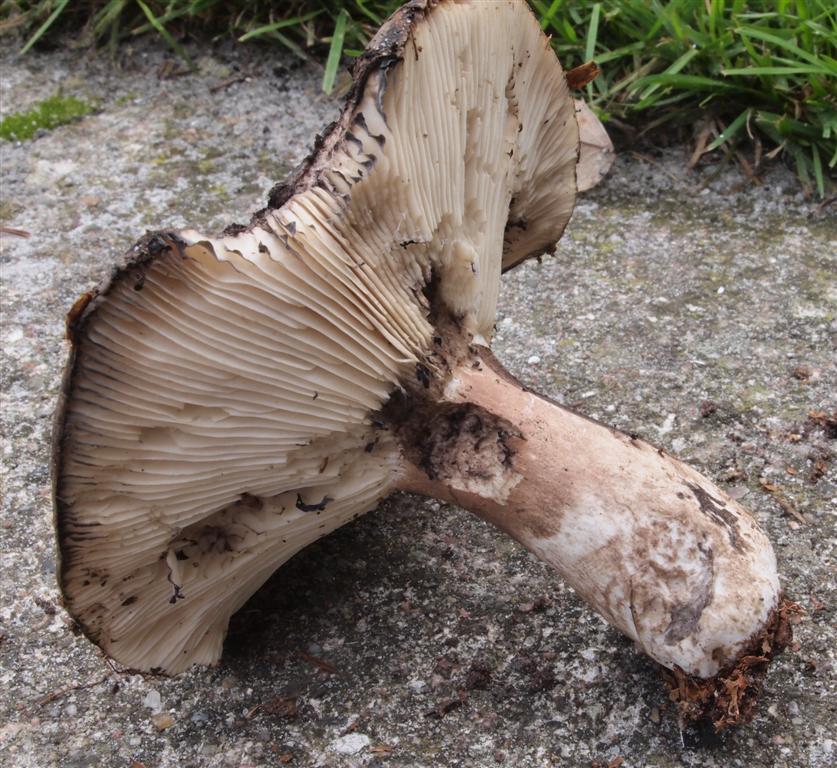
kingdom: Fungi
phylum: Basidiomycota
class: Agaricomycetes
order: Russulales
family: Russulaceae
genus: Russula
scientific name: Russula densifolia
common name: tætbladet skørhat
